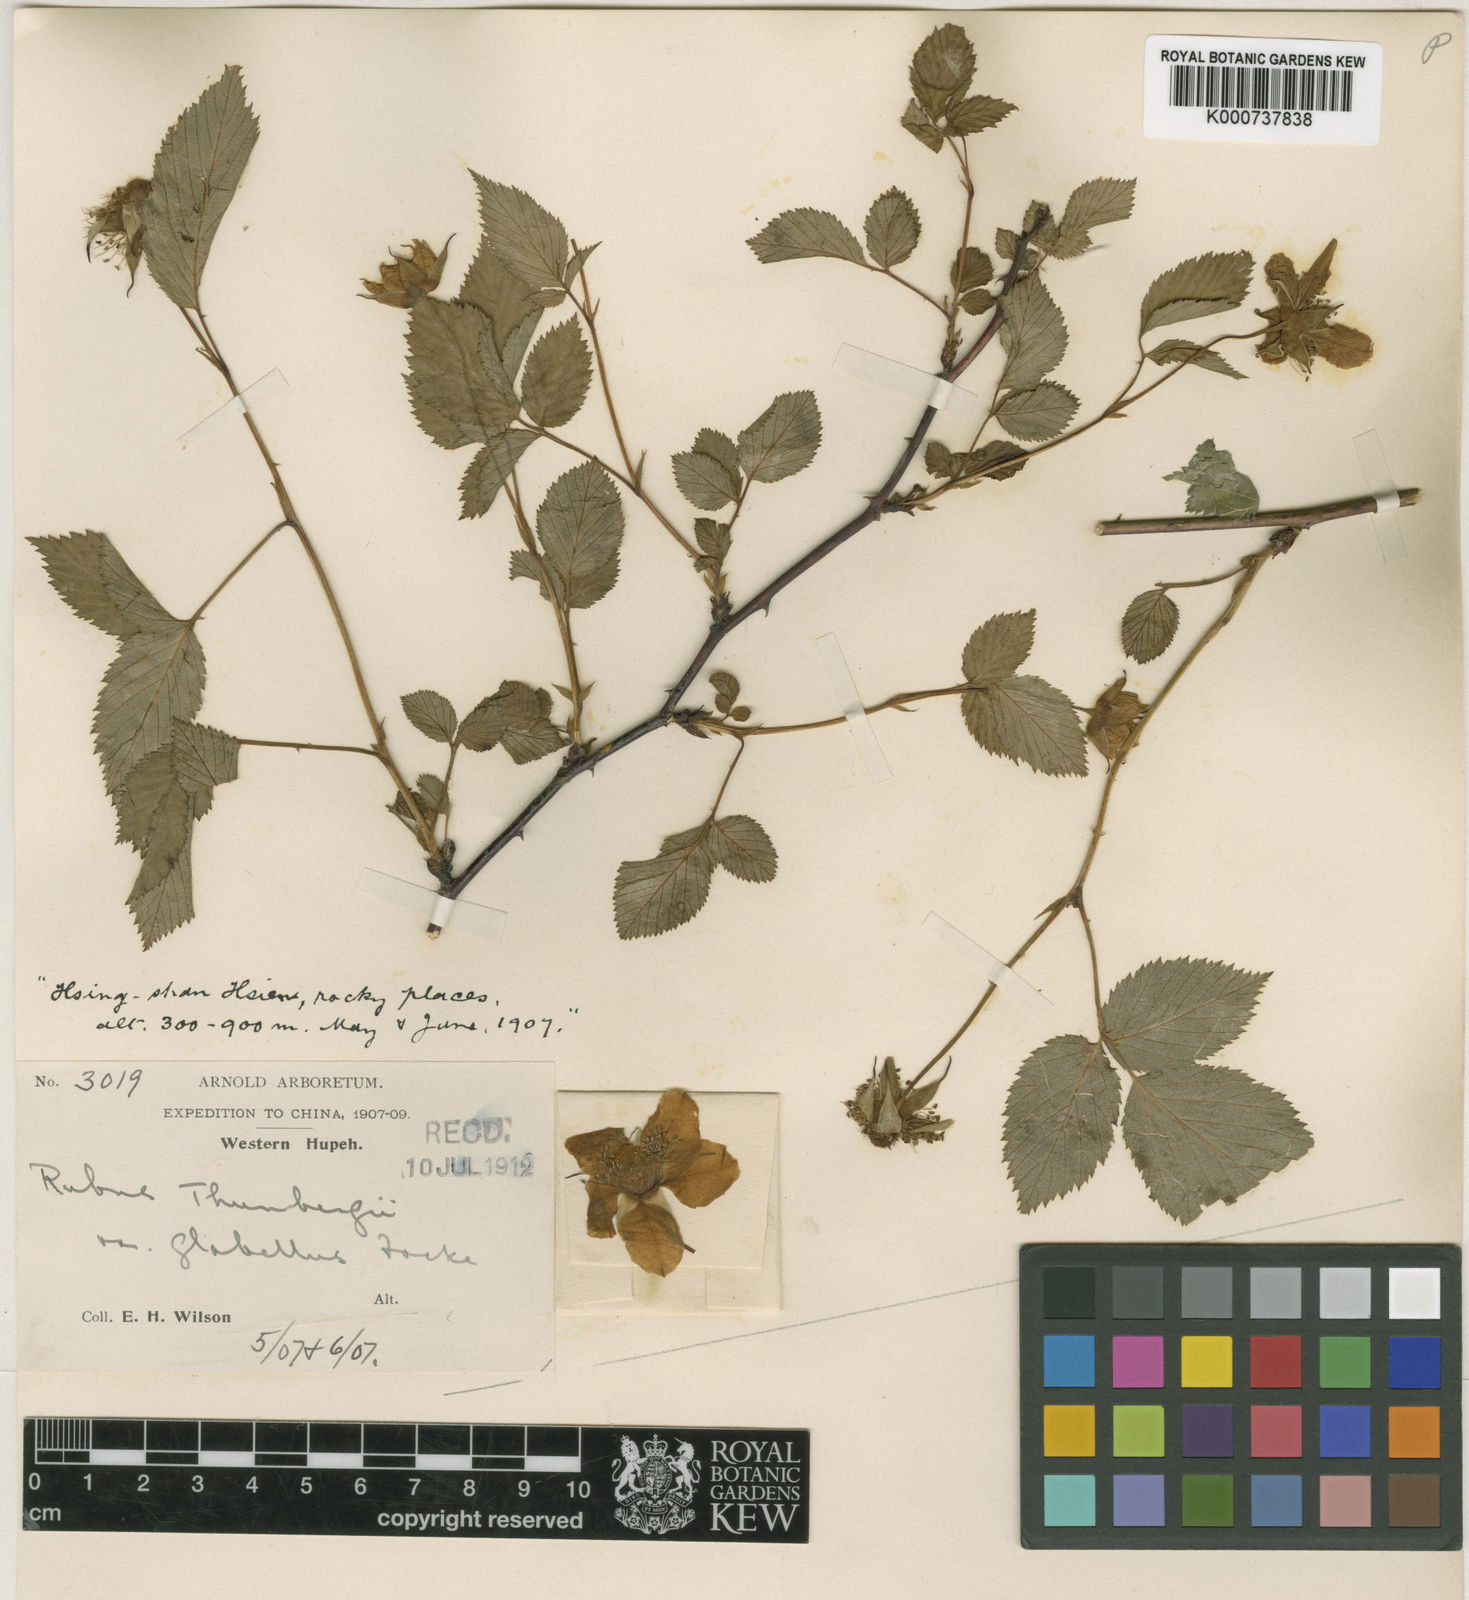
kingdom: Plantae
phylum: Tracheophyta
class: Magnoliopsida
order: Rosales
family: Rosaceae
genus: Rubus
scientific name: Rubus
